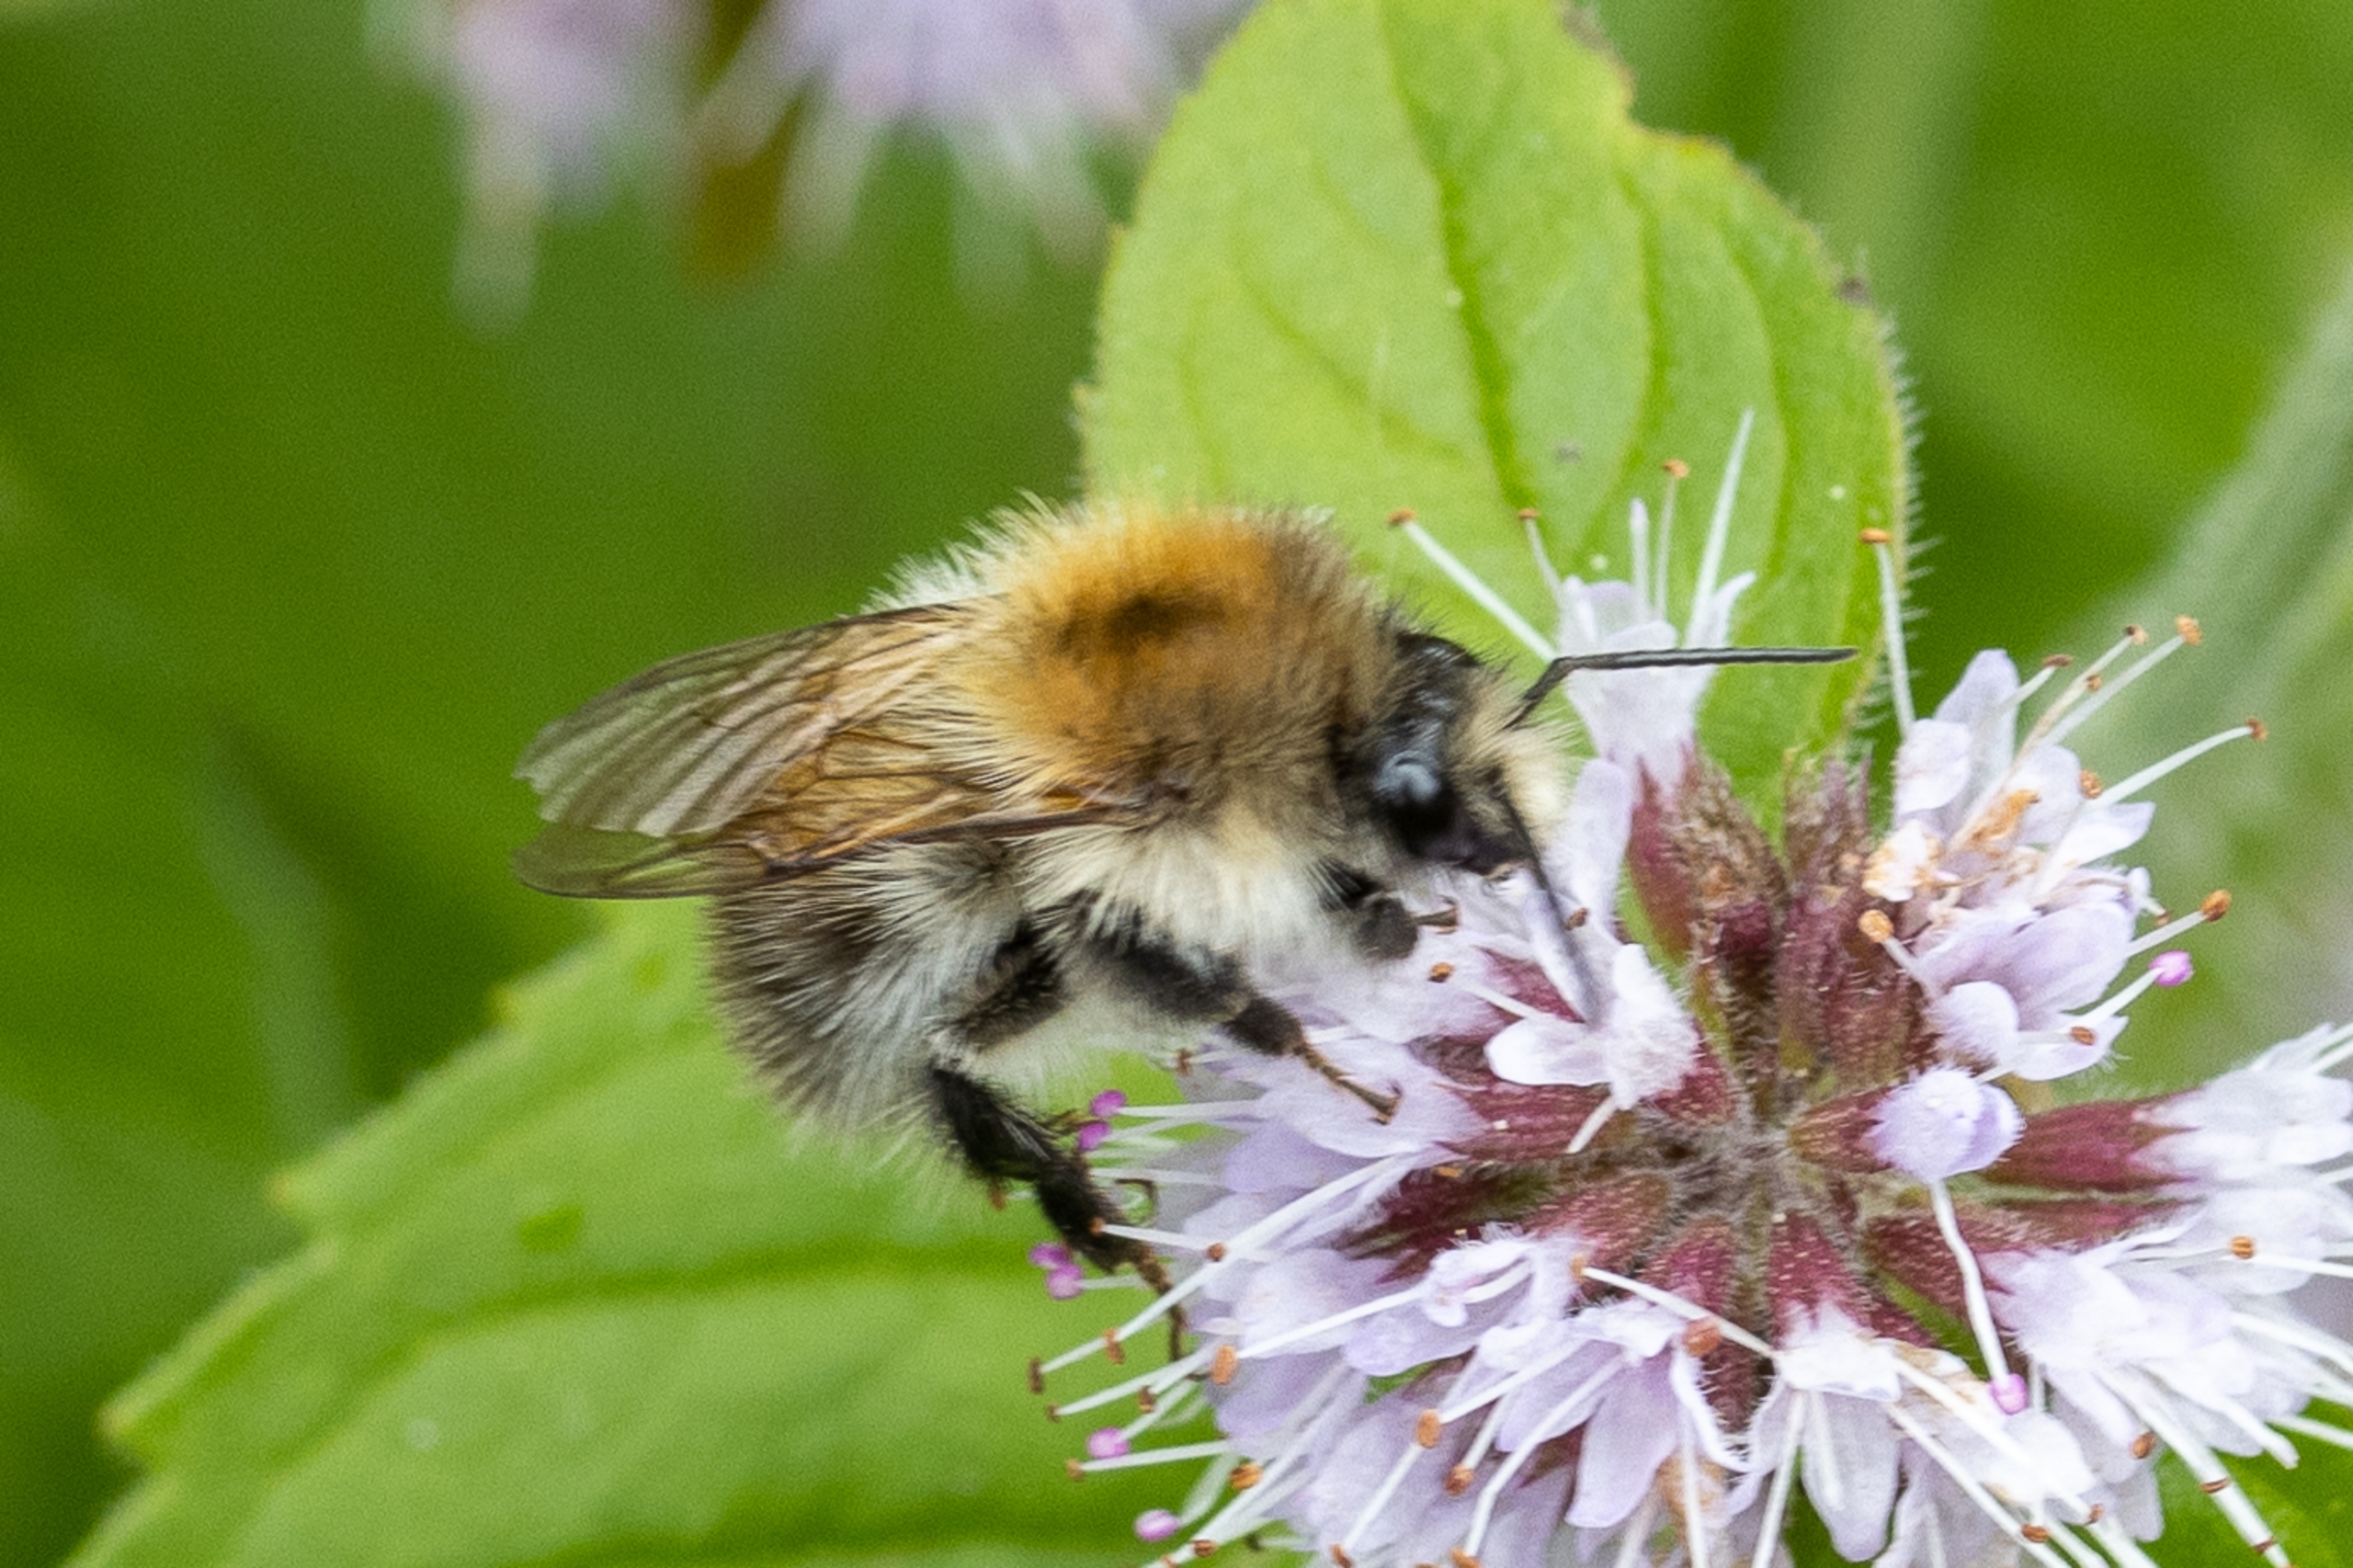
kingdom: Animalia
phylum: Arthropoda
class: Insecta
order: Hymenoptera
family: Apidae
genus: Bombus
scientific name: Bombus pascuorum
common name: Agerhumle
